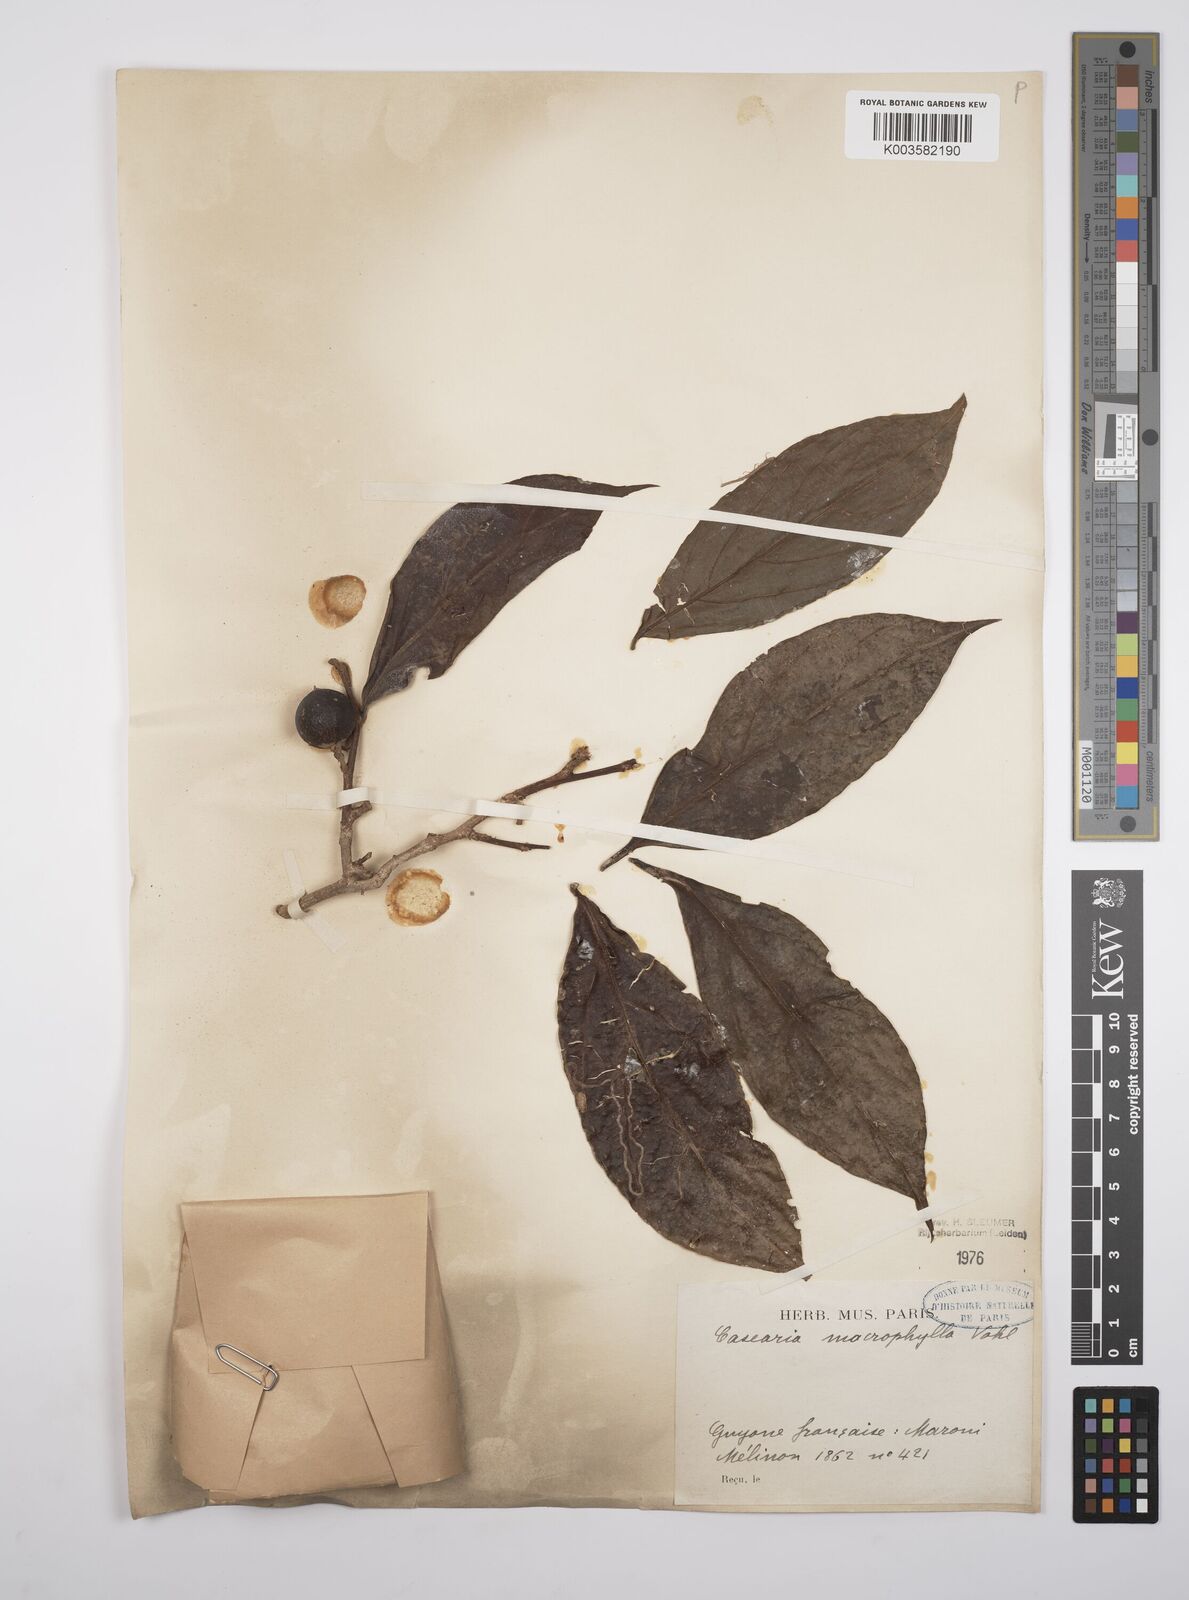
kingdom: Plantae
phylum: Tracheophyta
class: Magnoliopsida
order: Malpighiales
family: Salicaceae
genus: Casearia
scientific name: Casearia pitumba
